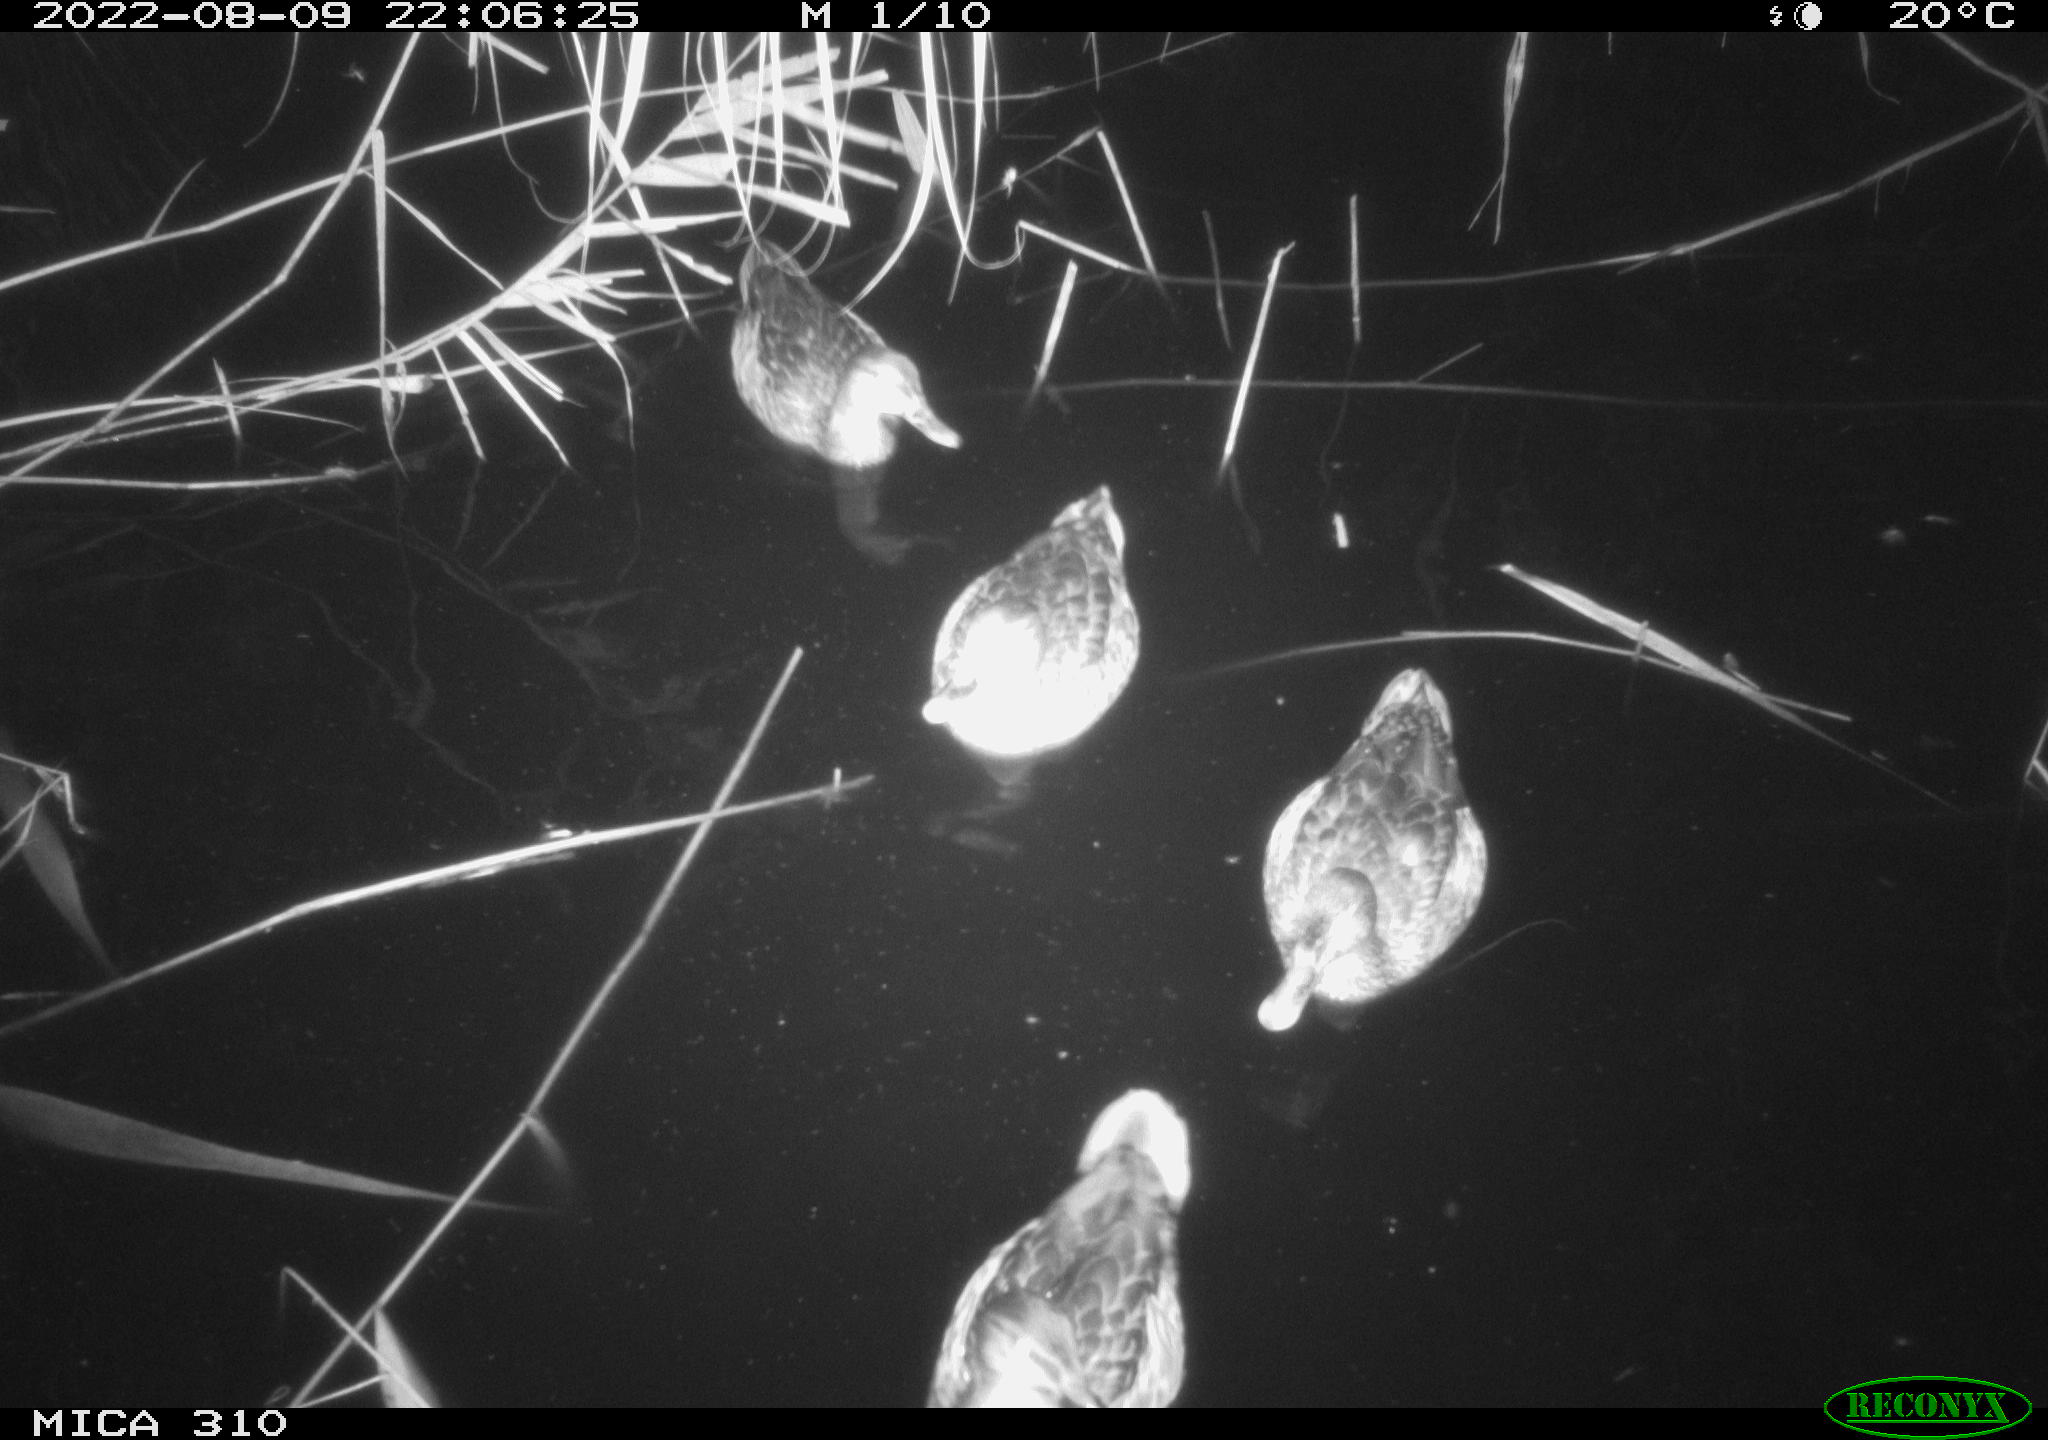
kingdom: Animalia
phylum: Chordata
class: Aves
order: Anseriformes
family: Anatidae
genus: Anas
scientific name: Anas platyrhynchos
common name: Mallard
